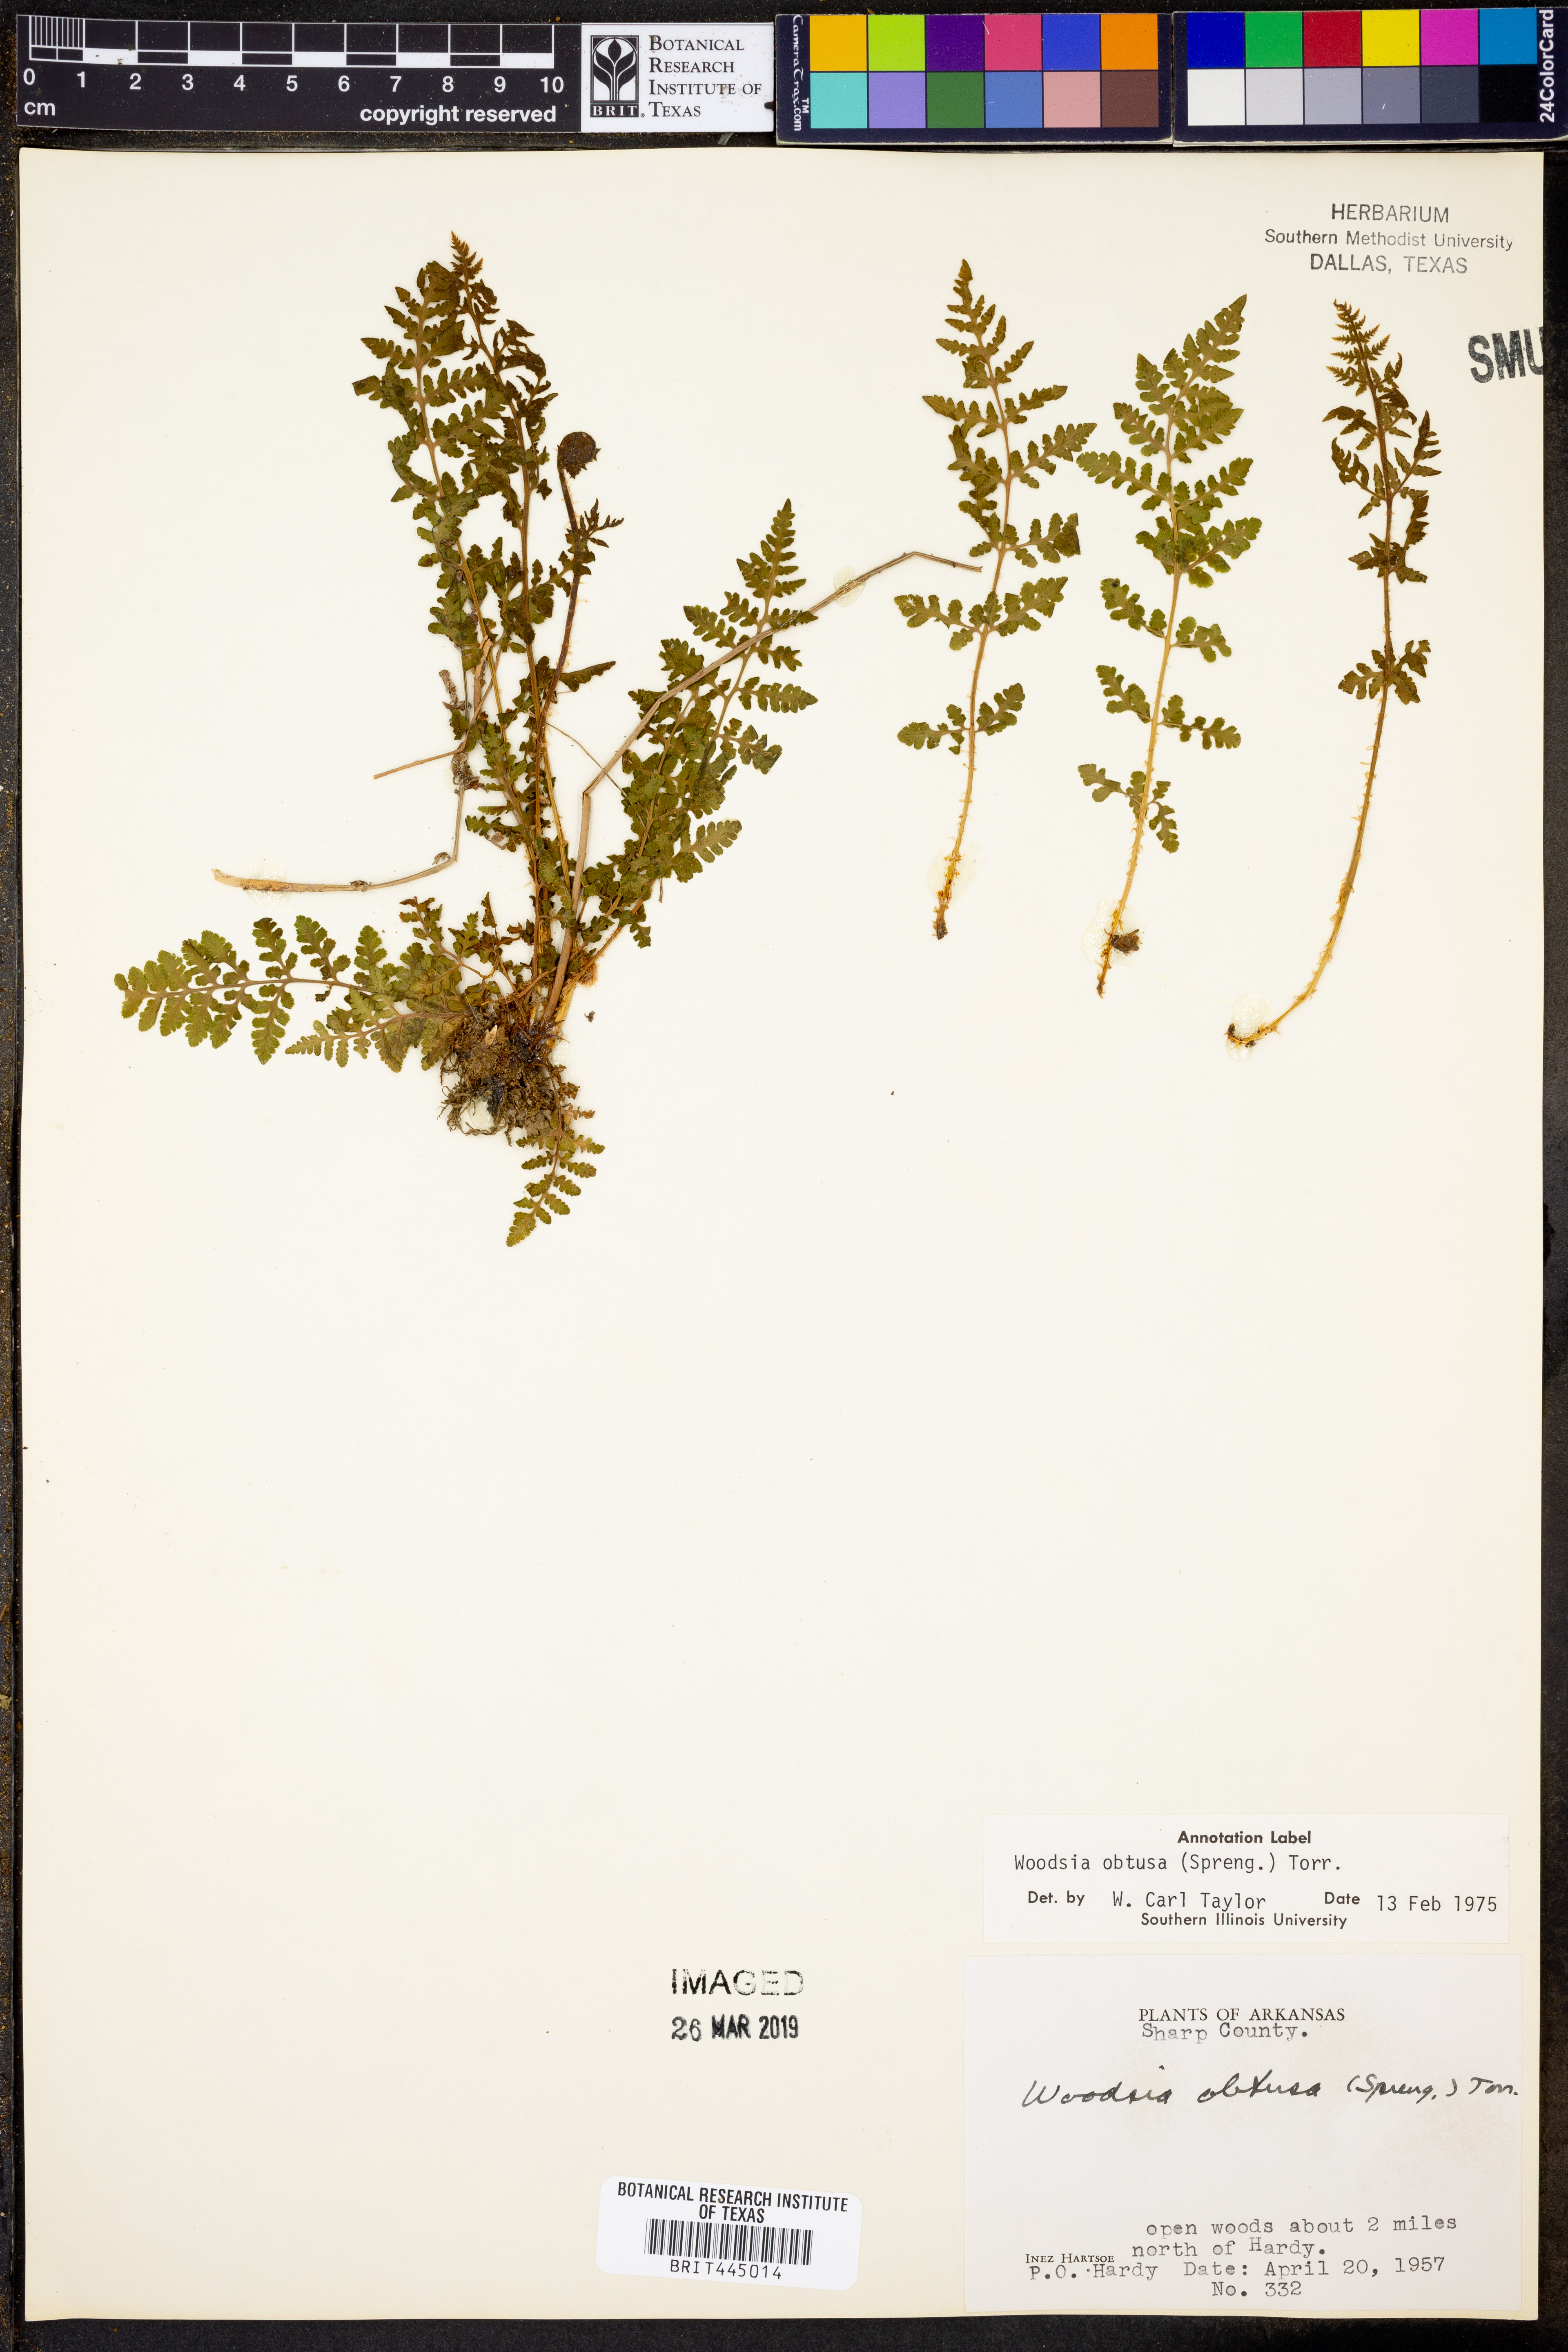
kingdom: Plantae
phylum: Tracheophyta
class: Polypodiopsida
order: Polypodiales
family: Woodsiaceae
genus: Physematium
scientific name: Physematium obtusum
